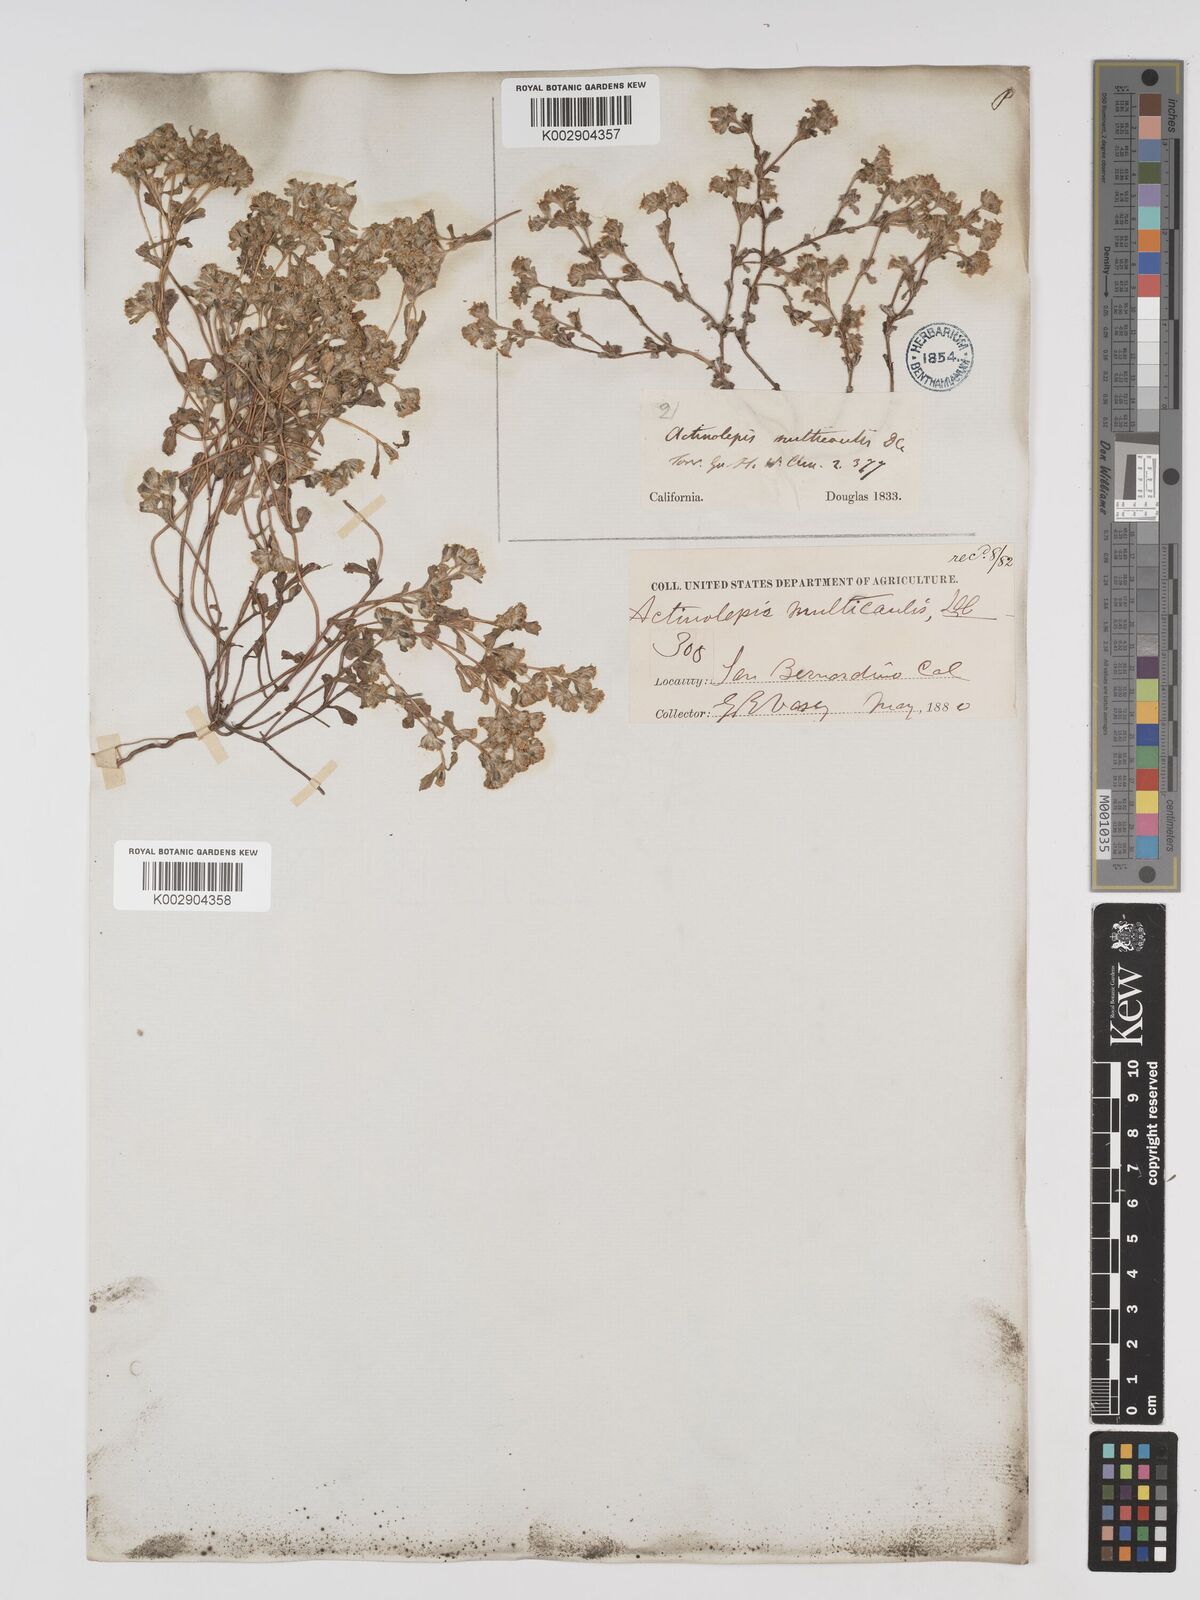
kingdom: Plantae
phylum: Tracheophyta
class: Magnoliopsida
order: Asterales
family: Asteraceae
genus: Eriophyllum
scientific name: Eriophyllum multicaule
